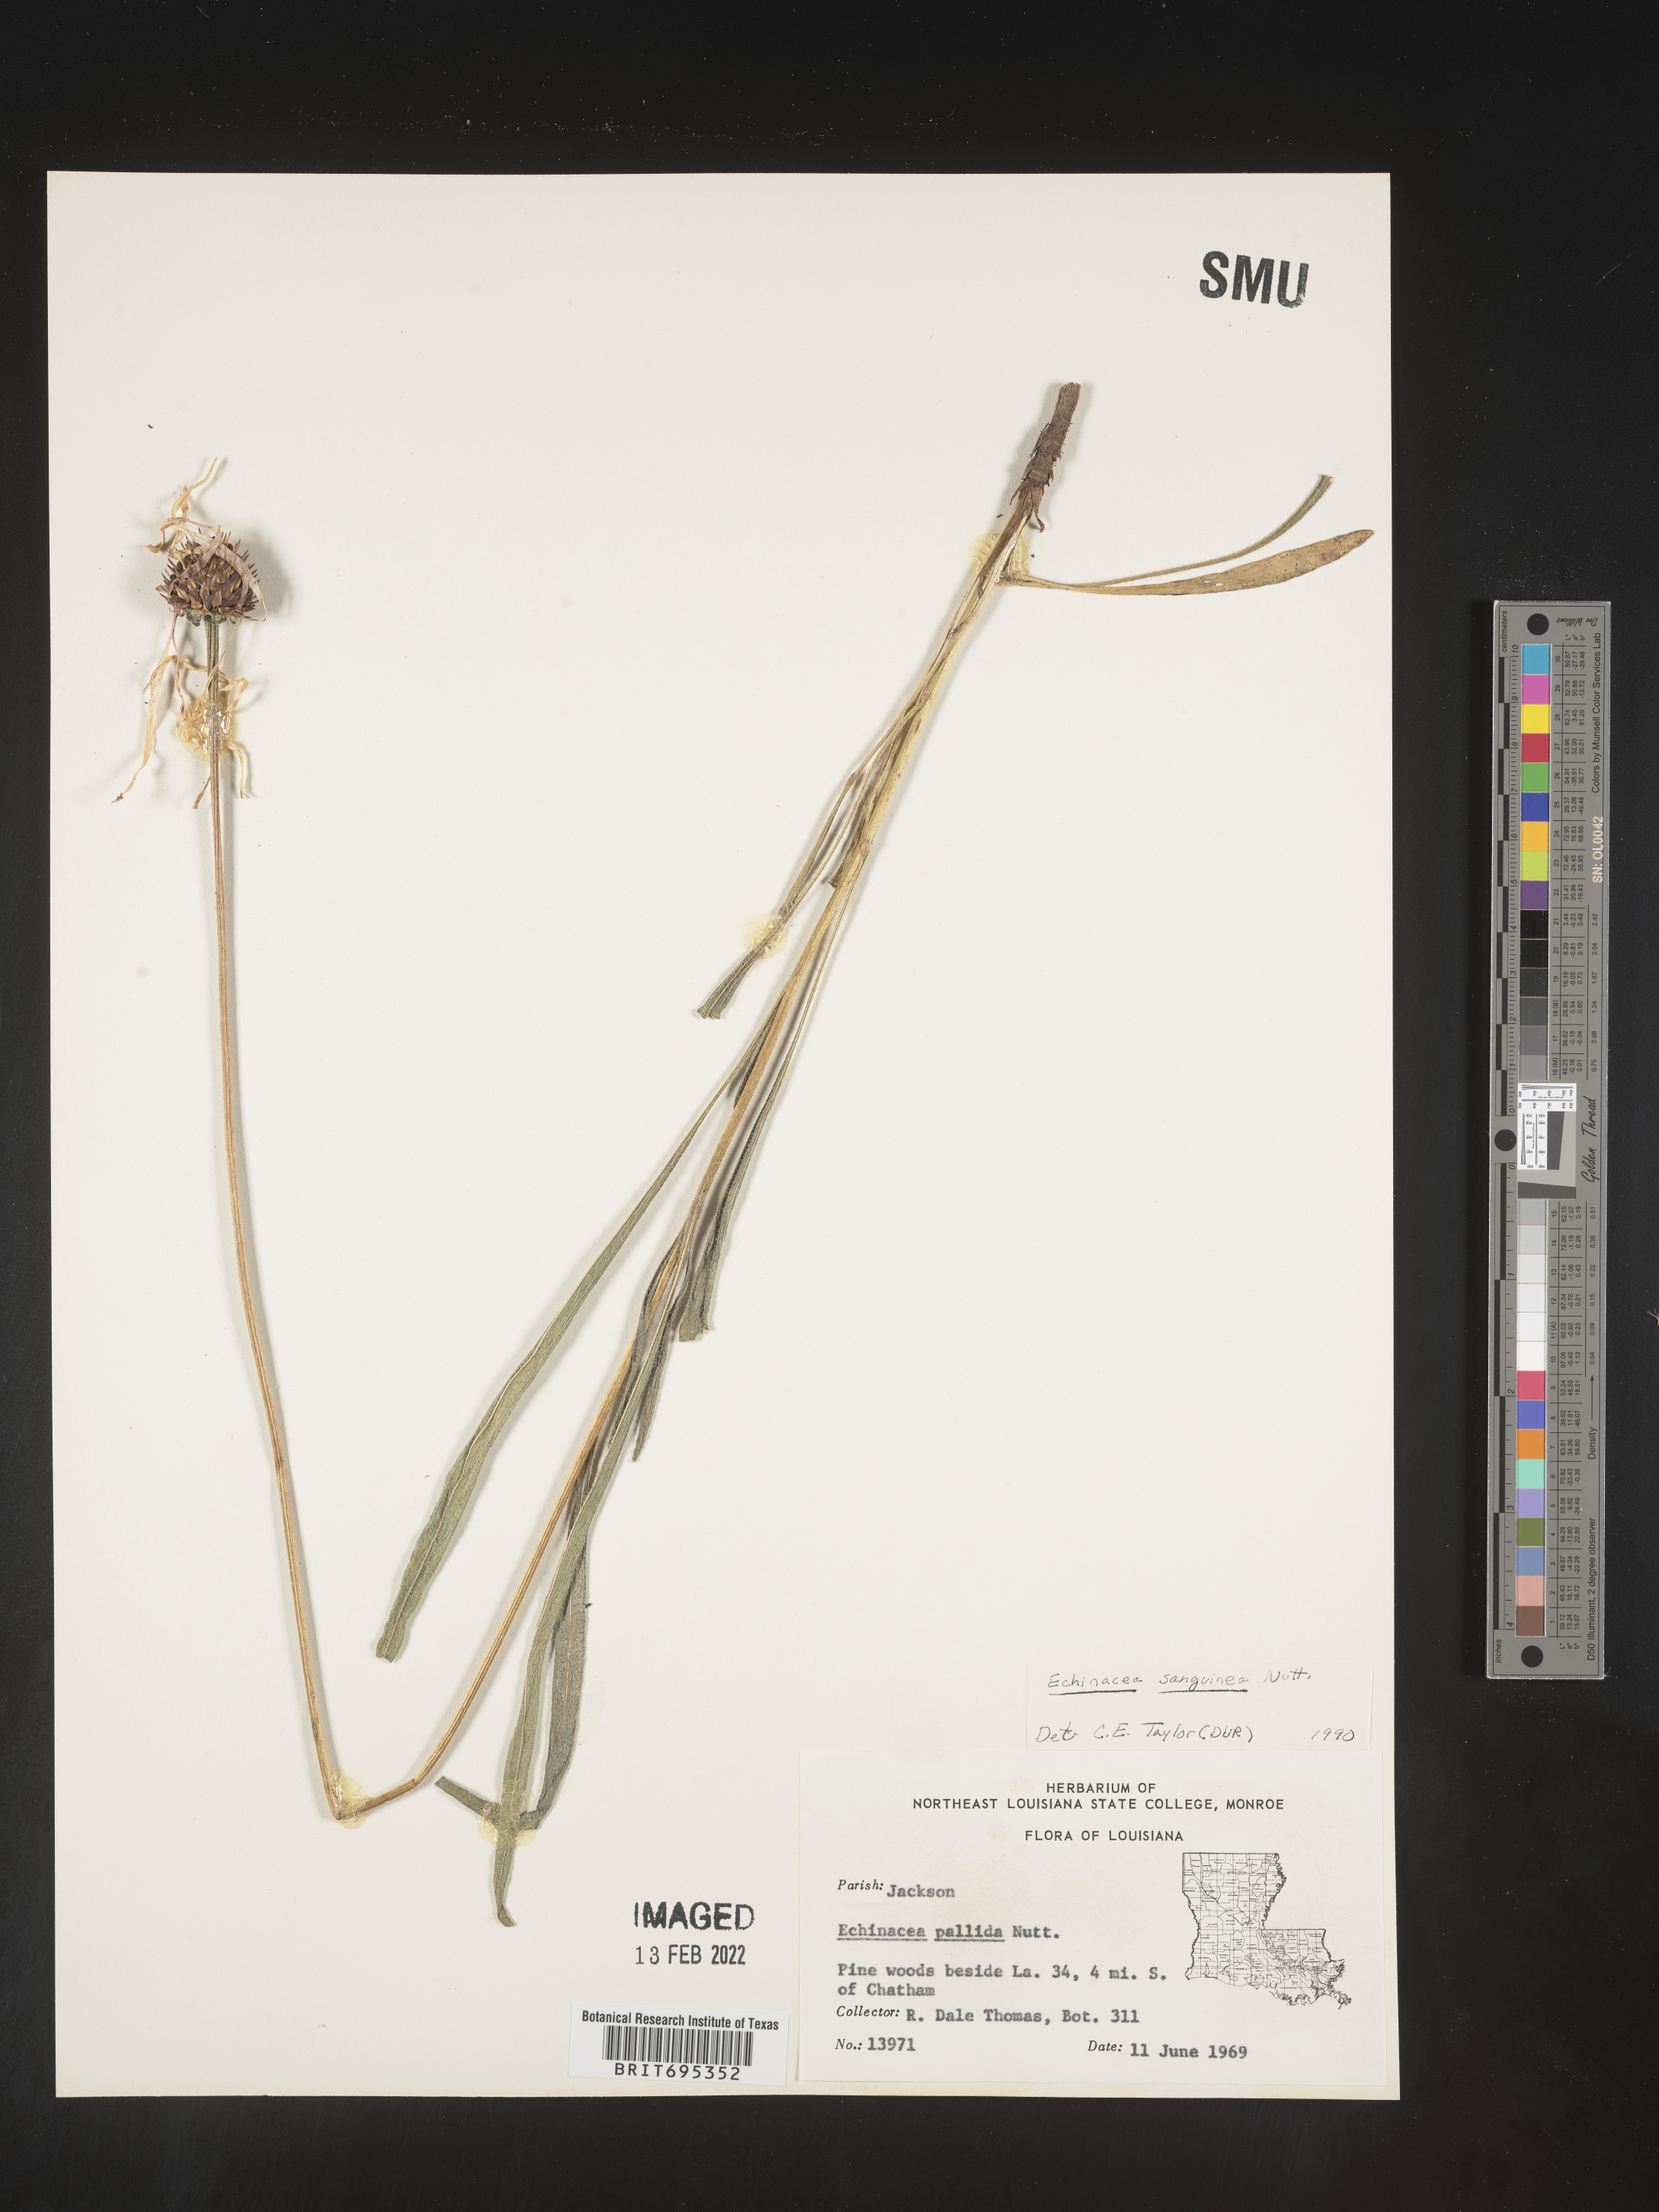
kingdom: Plantae
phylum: Tracheophyta
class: Magnoliopsida
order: Asterales
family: Asteraceae
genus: Echinacea
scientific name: Echinacea sanguinea
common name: Sanguine purple-coneflower
